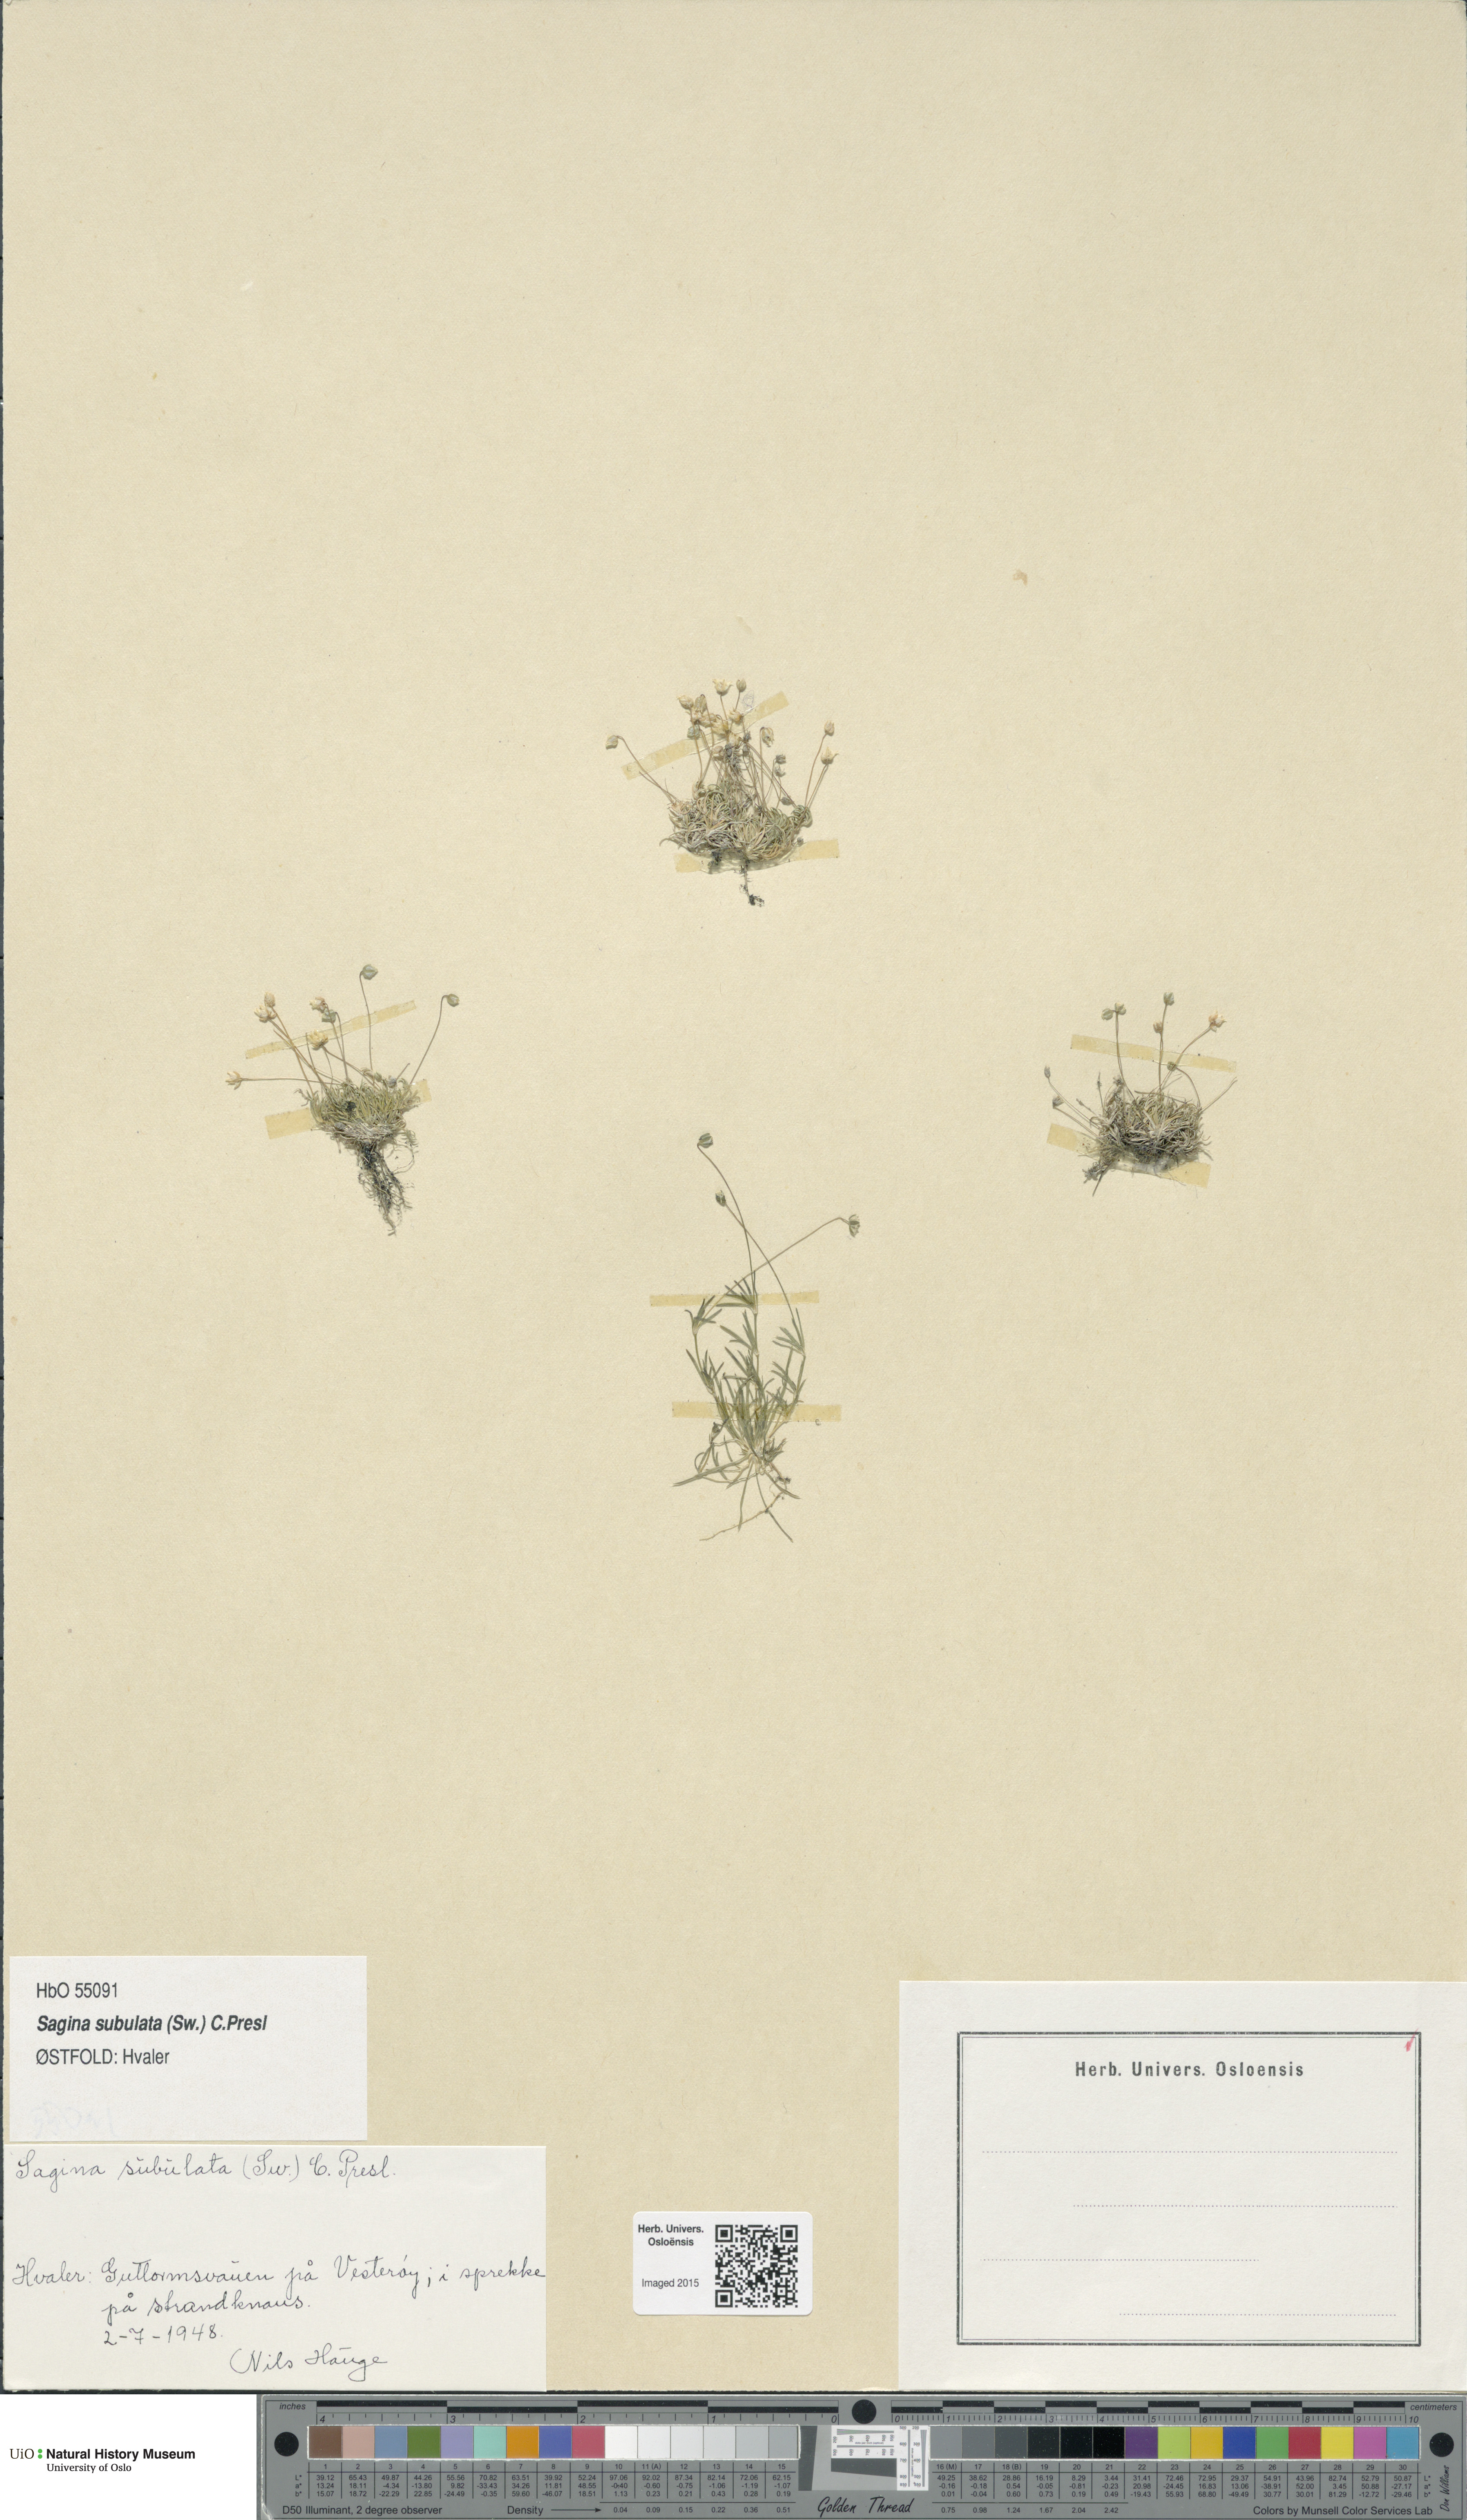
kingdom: Plantae
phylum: Tracheophyta
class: Magnoliopsida
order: Caryophyllales
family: Caryophyllaceae
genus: Sagina
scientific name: Sagina alexandrae
